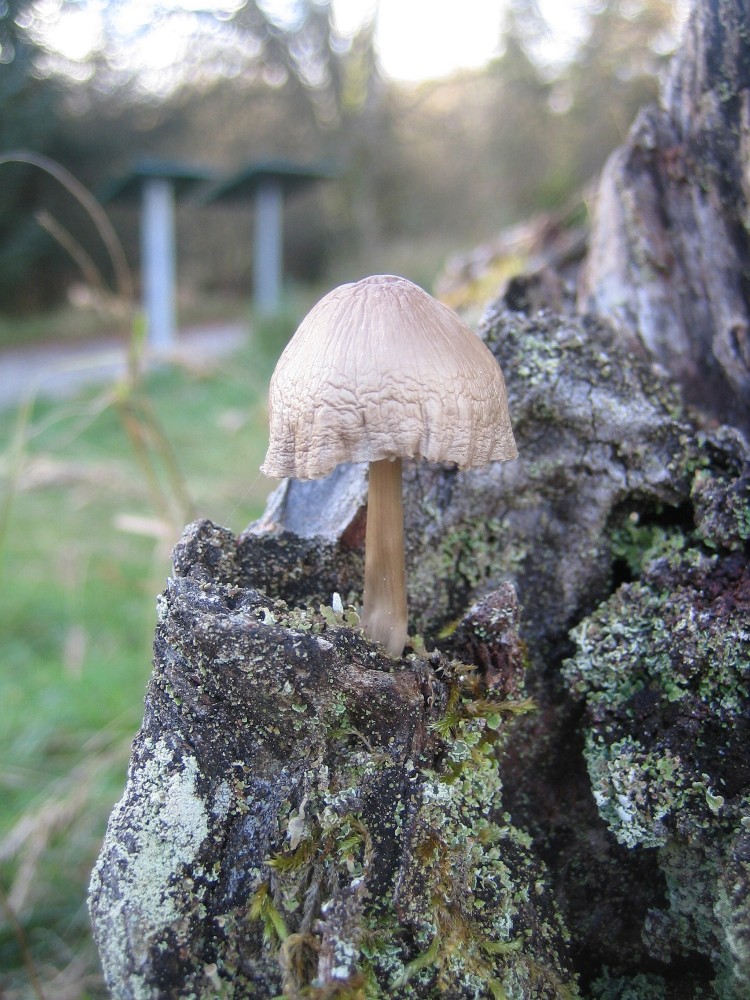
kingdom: Fungi
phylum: Basidiomycota
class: Agaricomycetes
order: Agaricales
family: Mycenaceae
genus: Mycena
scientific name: Mycena galericulata
